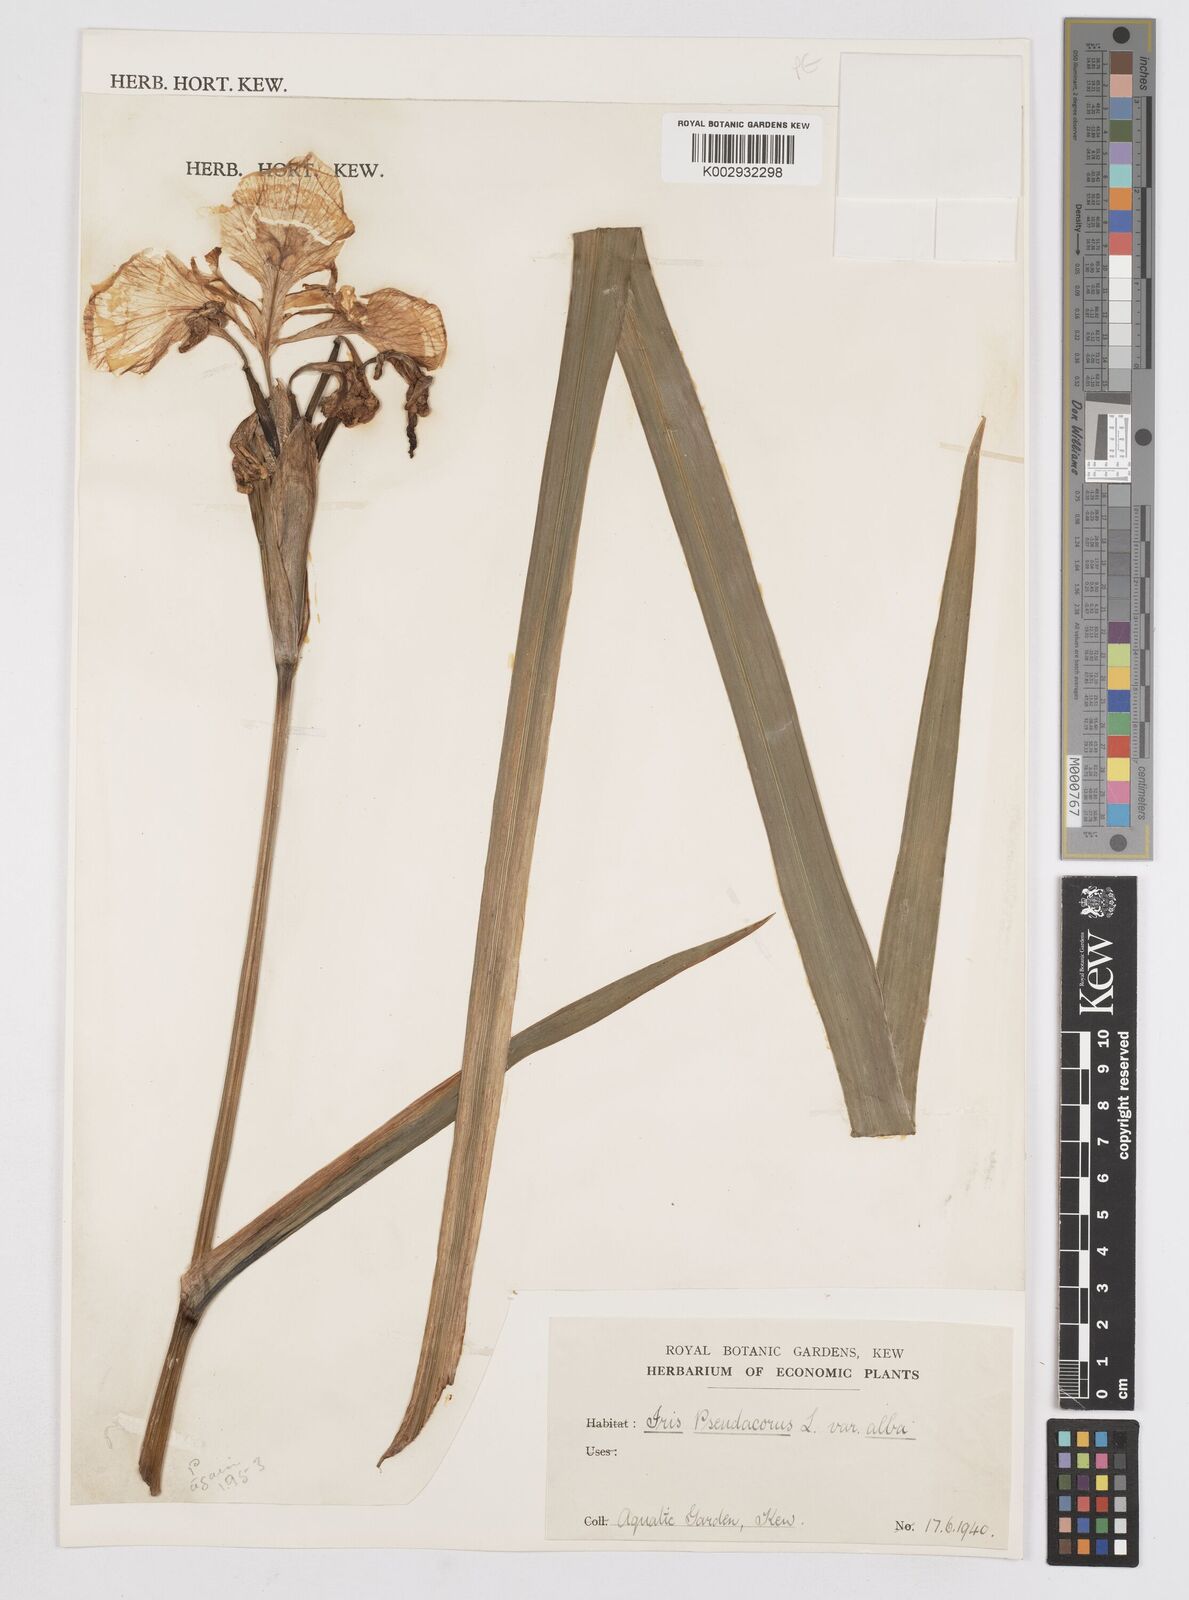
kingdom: Plantae
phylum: Tracheophyta
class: Liliopsida
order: Asparagales
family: Iridaceae
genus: Iris
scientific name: Iris pseudacorus
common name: Yellow flag
